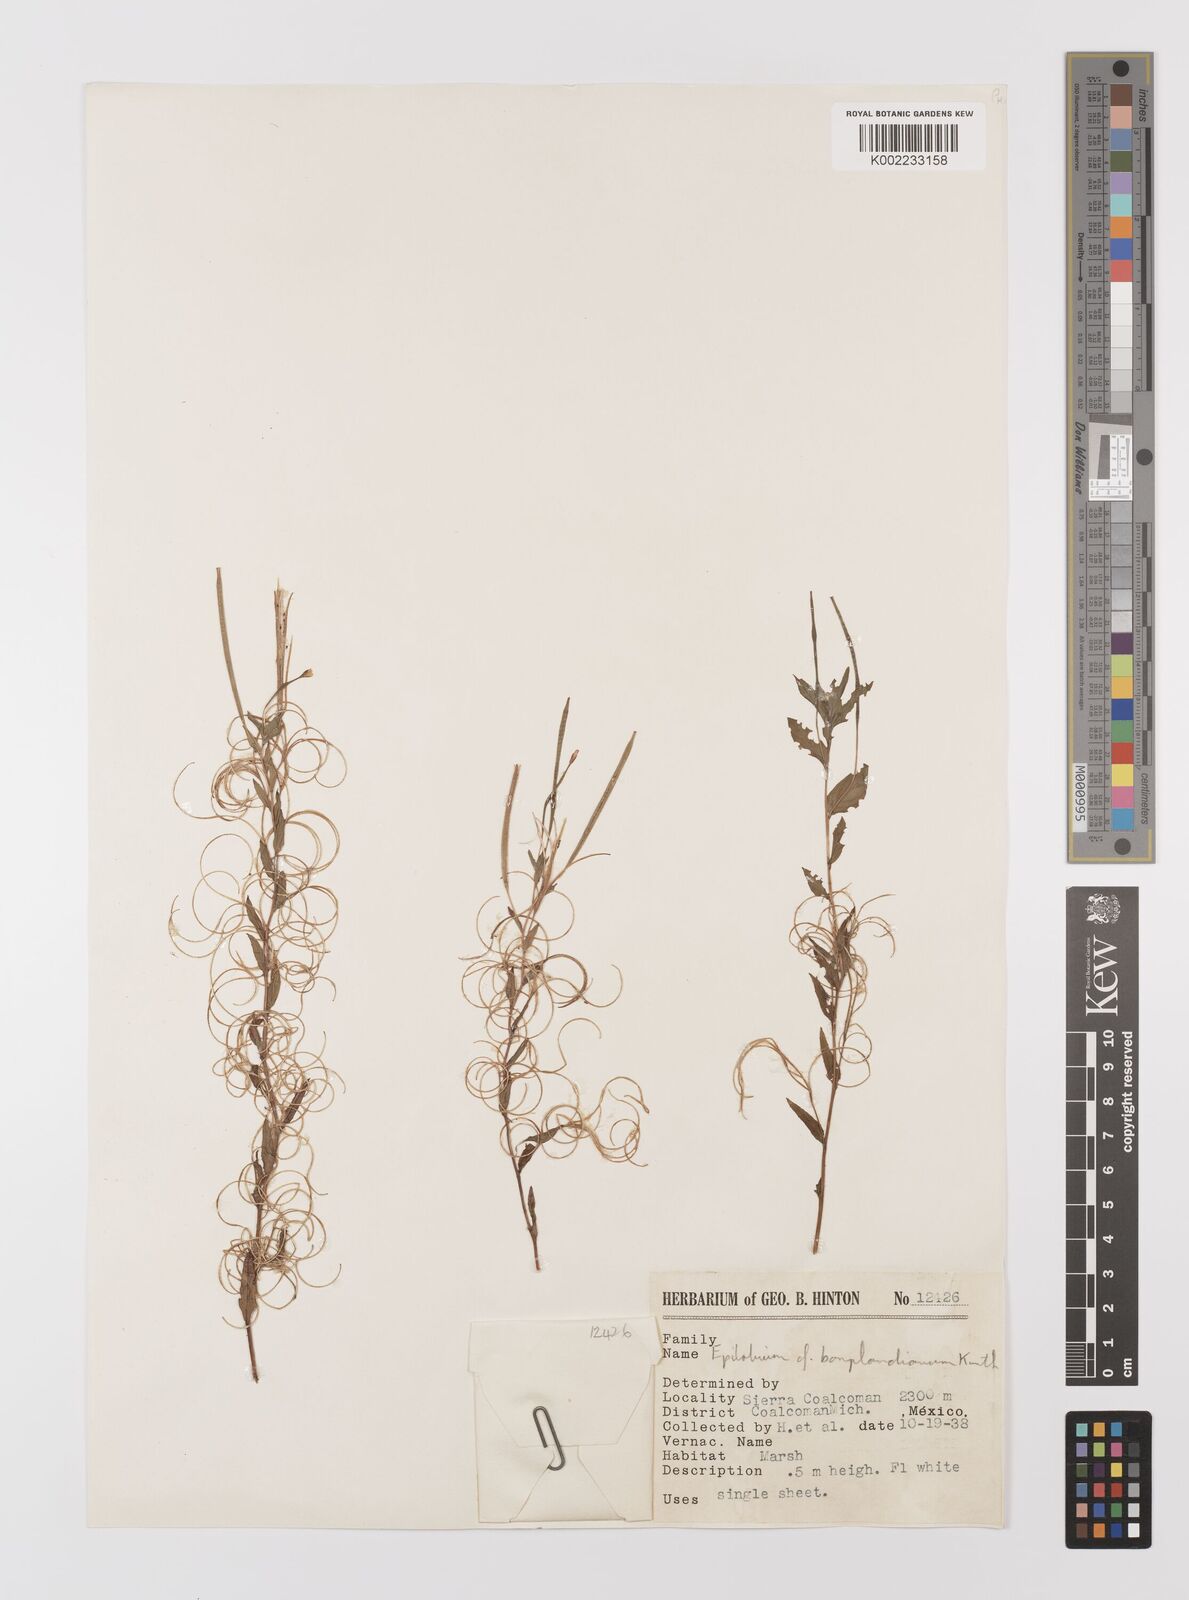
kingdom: Plantae
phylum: Tracheophyta
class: Magnoliopsida
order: Myrtales
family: Onagraceae
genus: Epilobium
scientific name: Epilobium denticulatum
